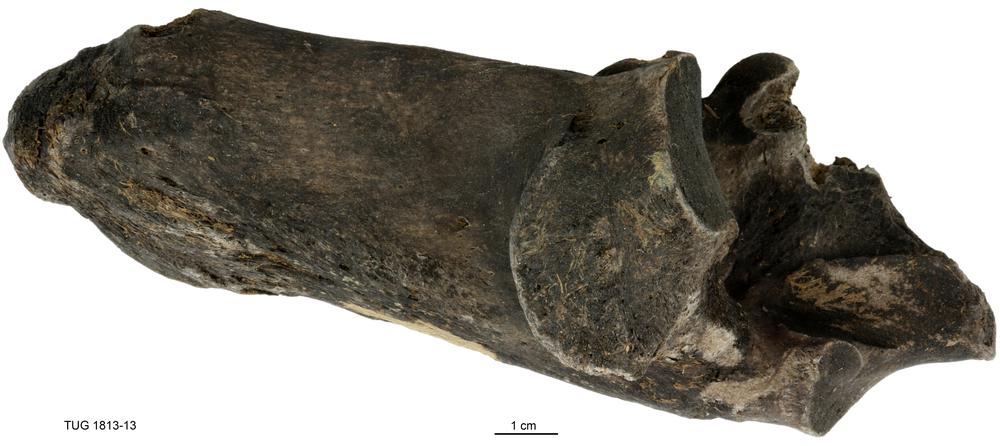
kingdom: Animalia
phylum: Chordata
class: Mammalia
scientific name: Mammalia
